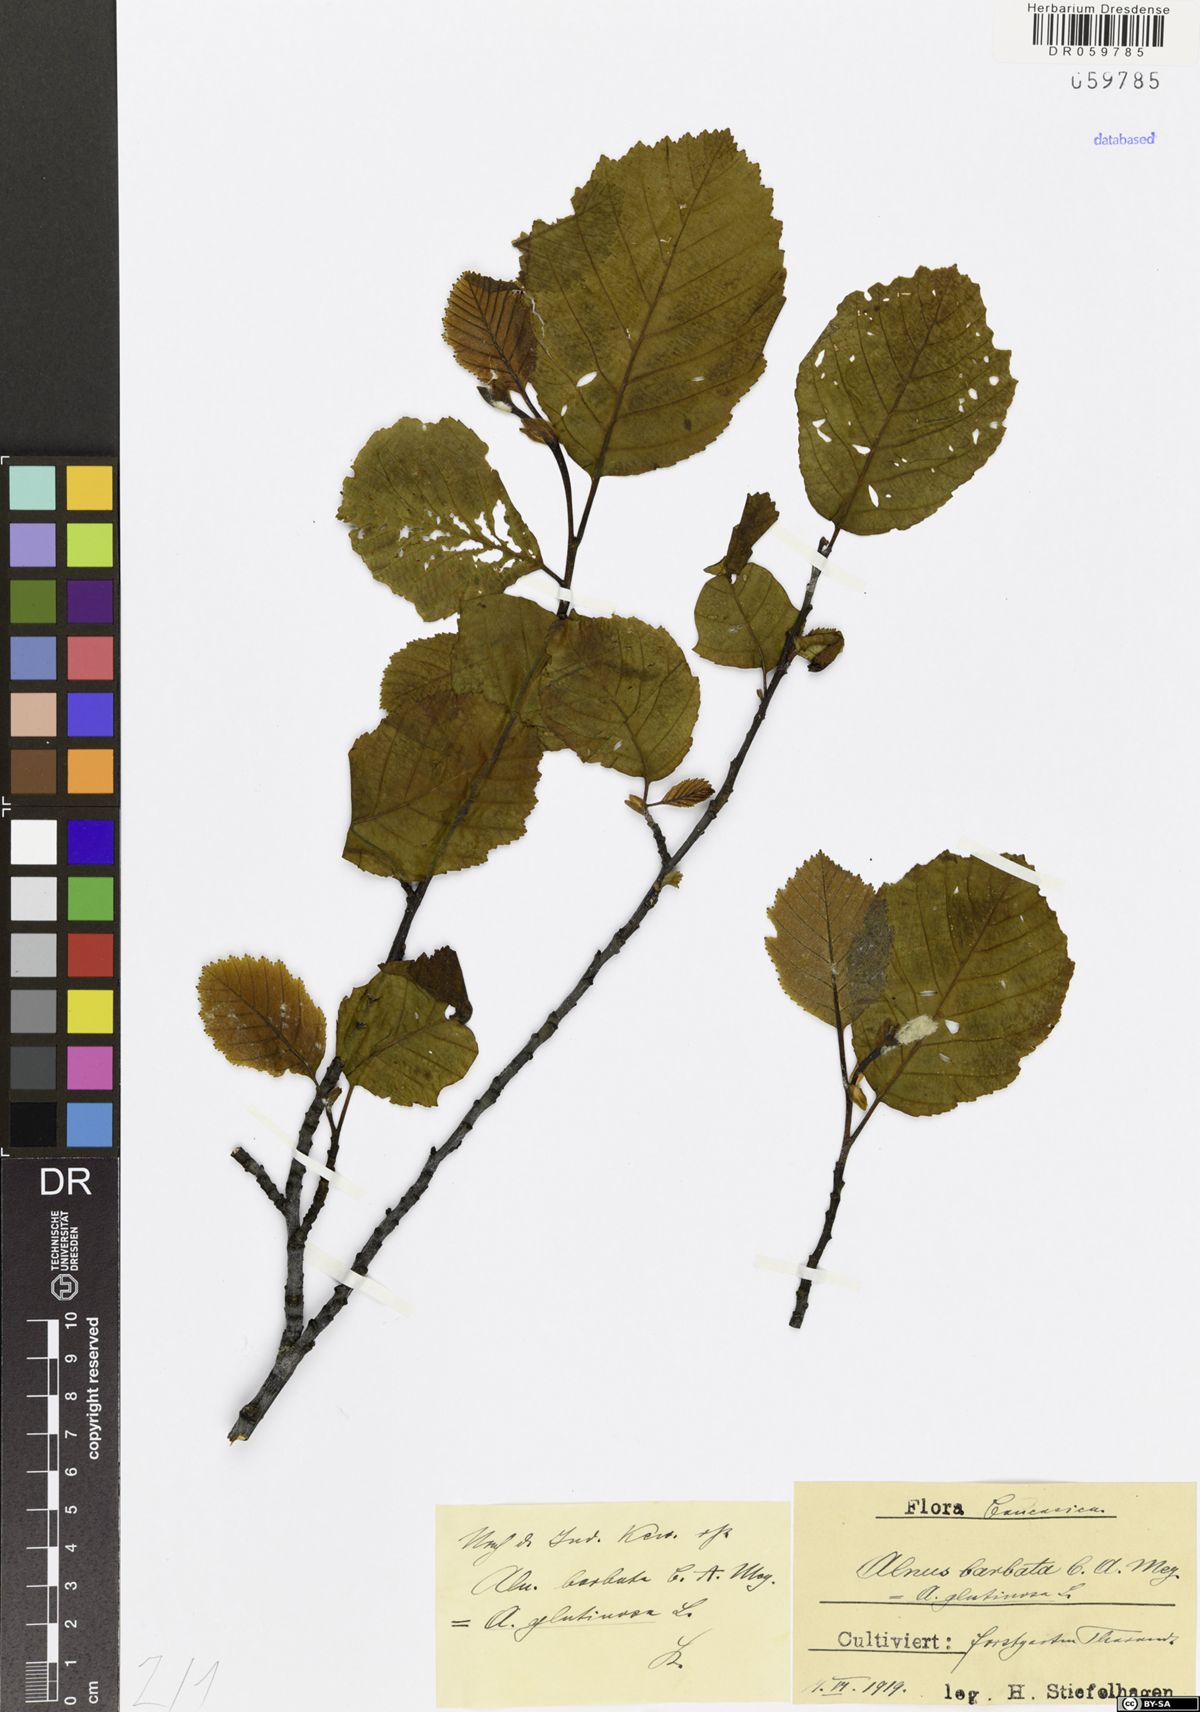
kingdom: Plantae
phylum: Tracheophyta
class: Magnoliopsida
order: Fagales
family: Betulaceae
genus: Alnus
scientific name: Alnus glutinosa
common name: Black alder
